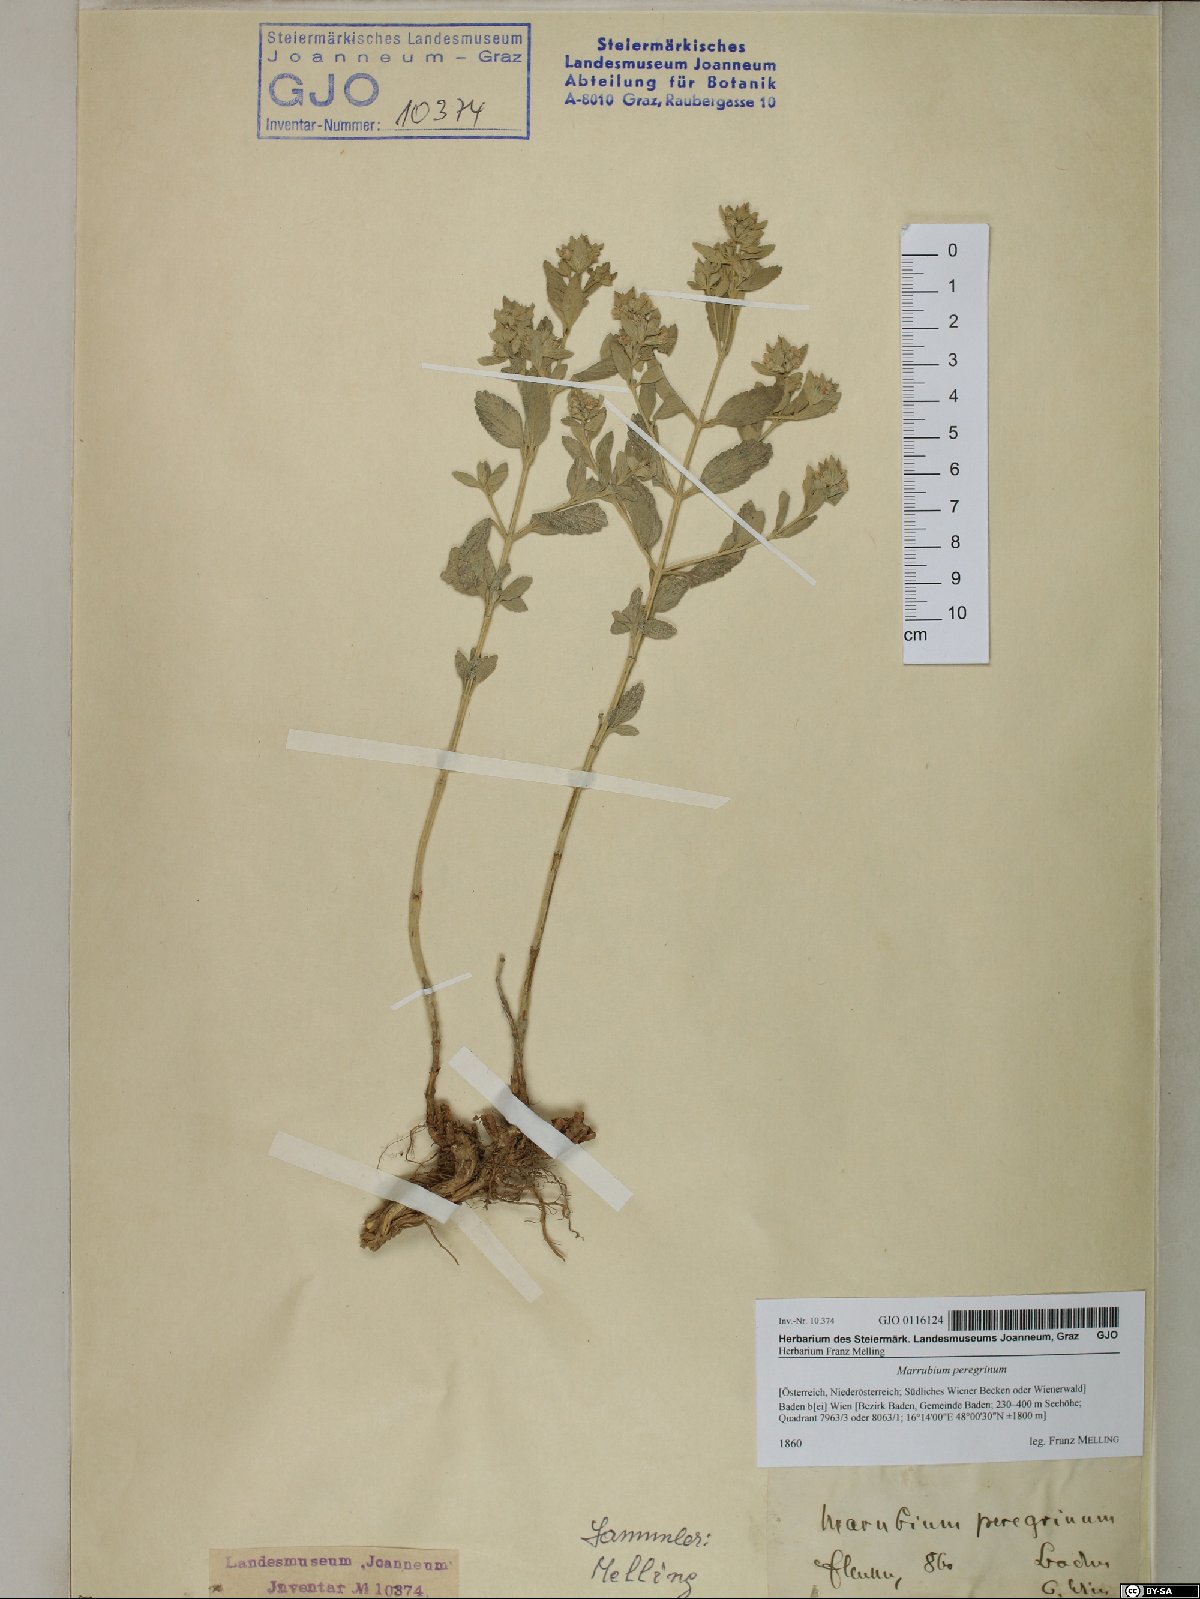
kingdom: Plantae
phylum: Tracheophyta
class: Magnoliopsida
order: Lamiales
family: Lamiaceae
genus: Marrubium
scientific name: Marrubium peregrinum
